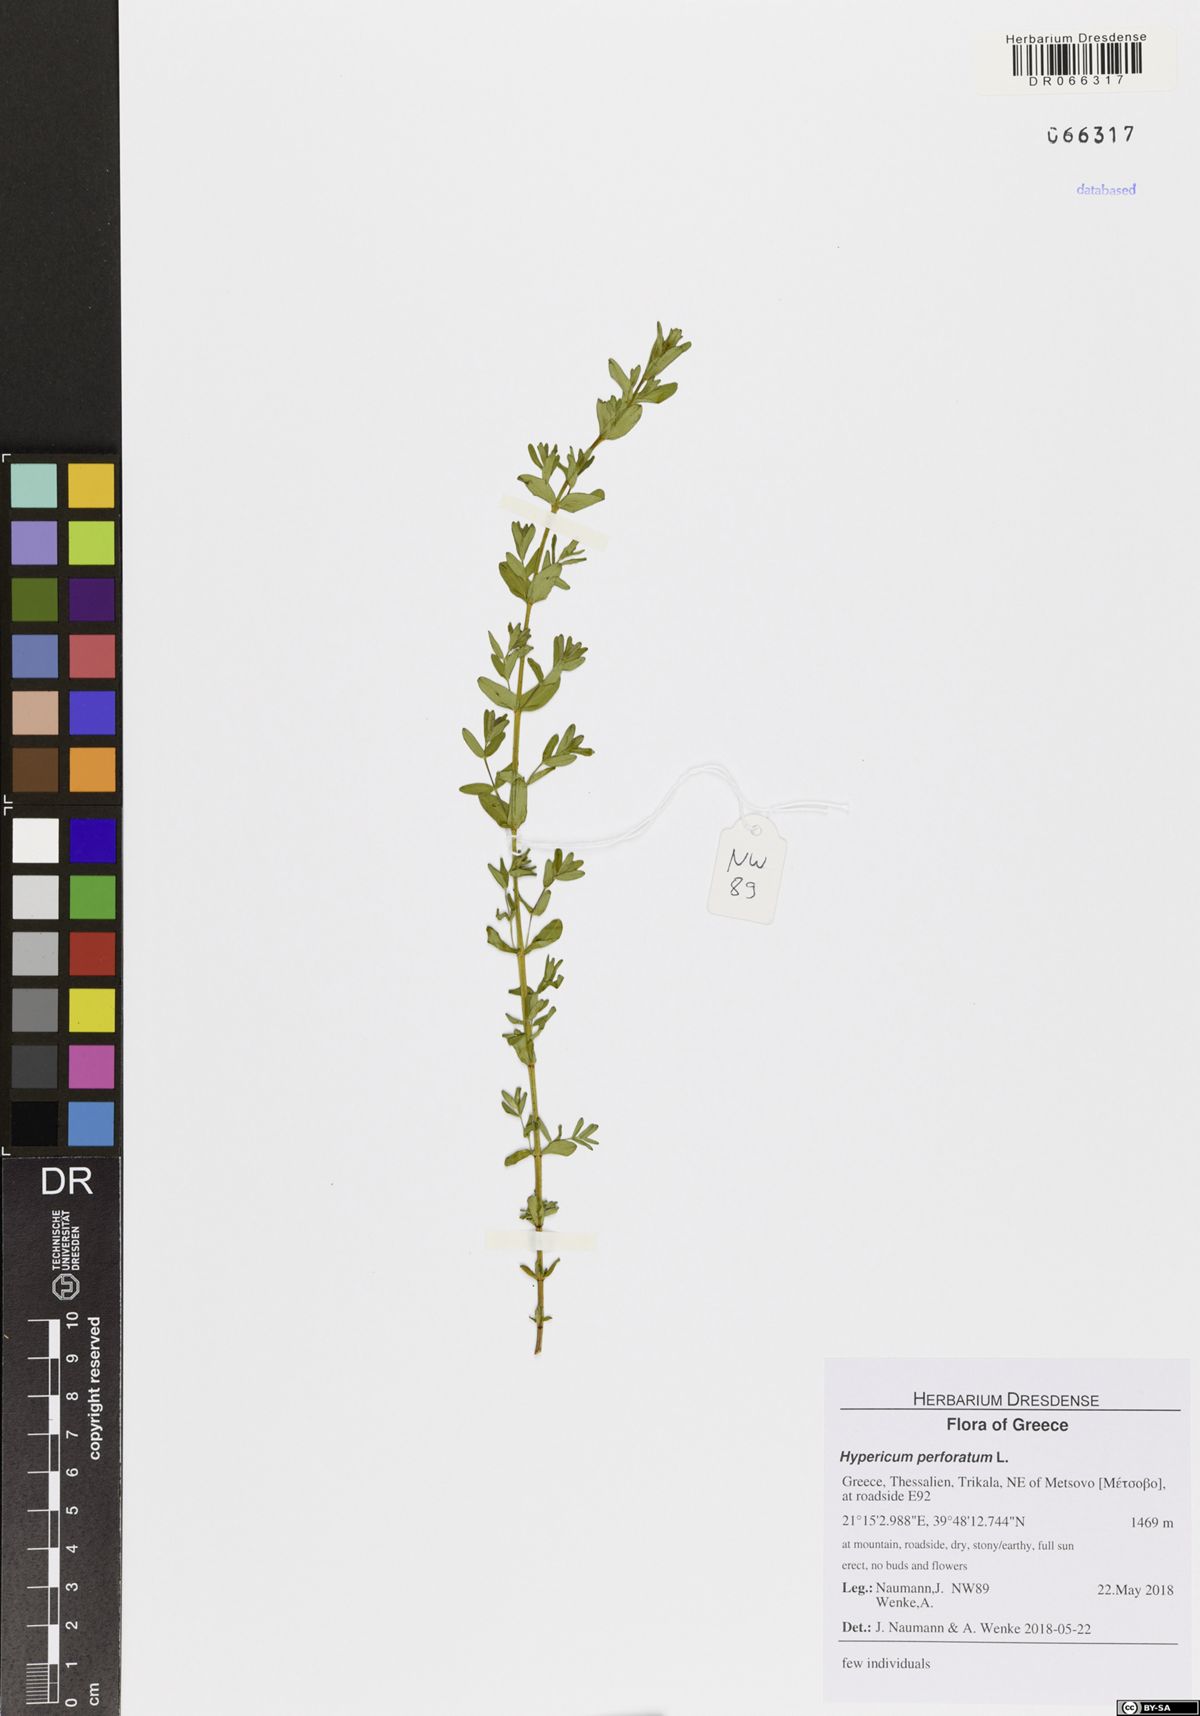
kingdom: Plantae
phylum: Tracheophyta
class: Magnoliopsida
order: Malpighiales
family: Hypericaceae
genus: Hypericum
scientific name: Hypericum perforatum
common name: Common st. johnswort
